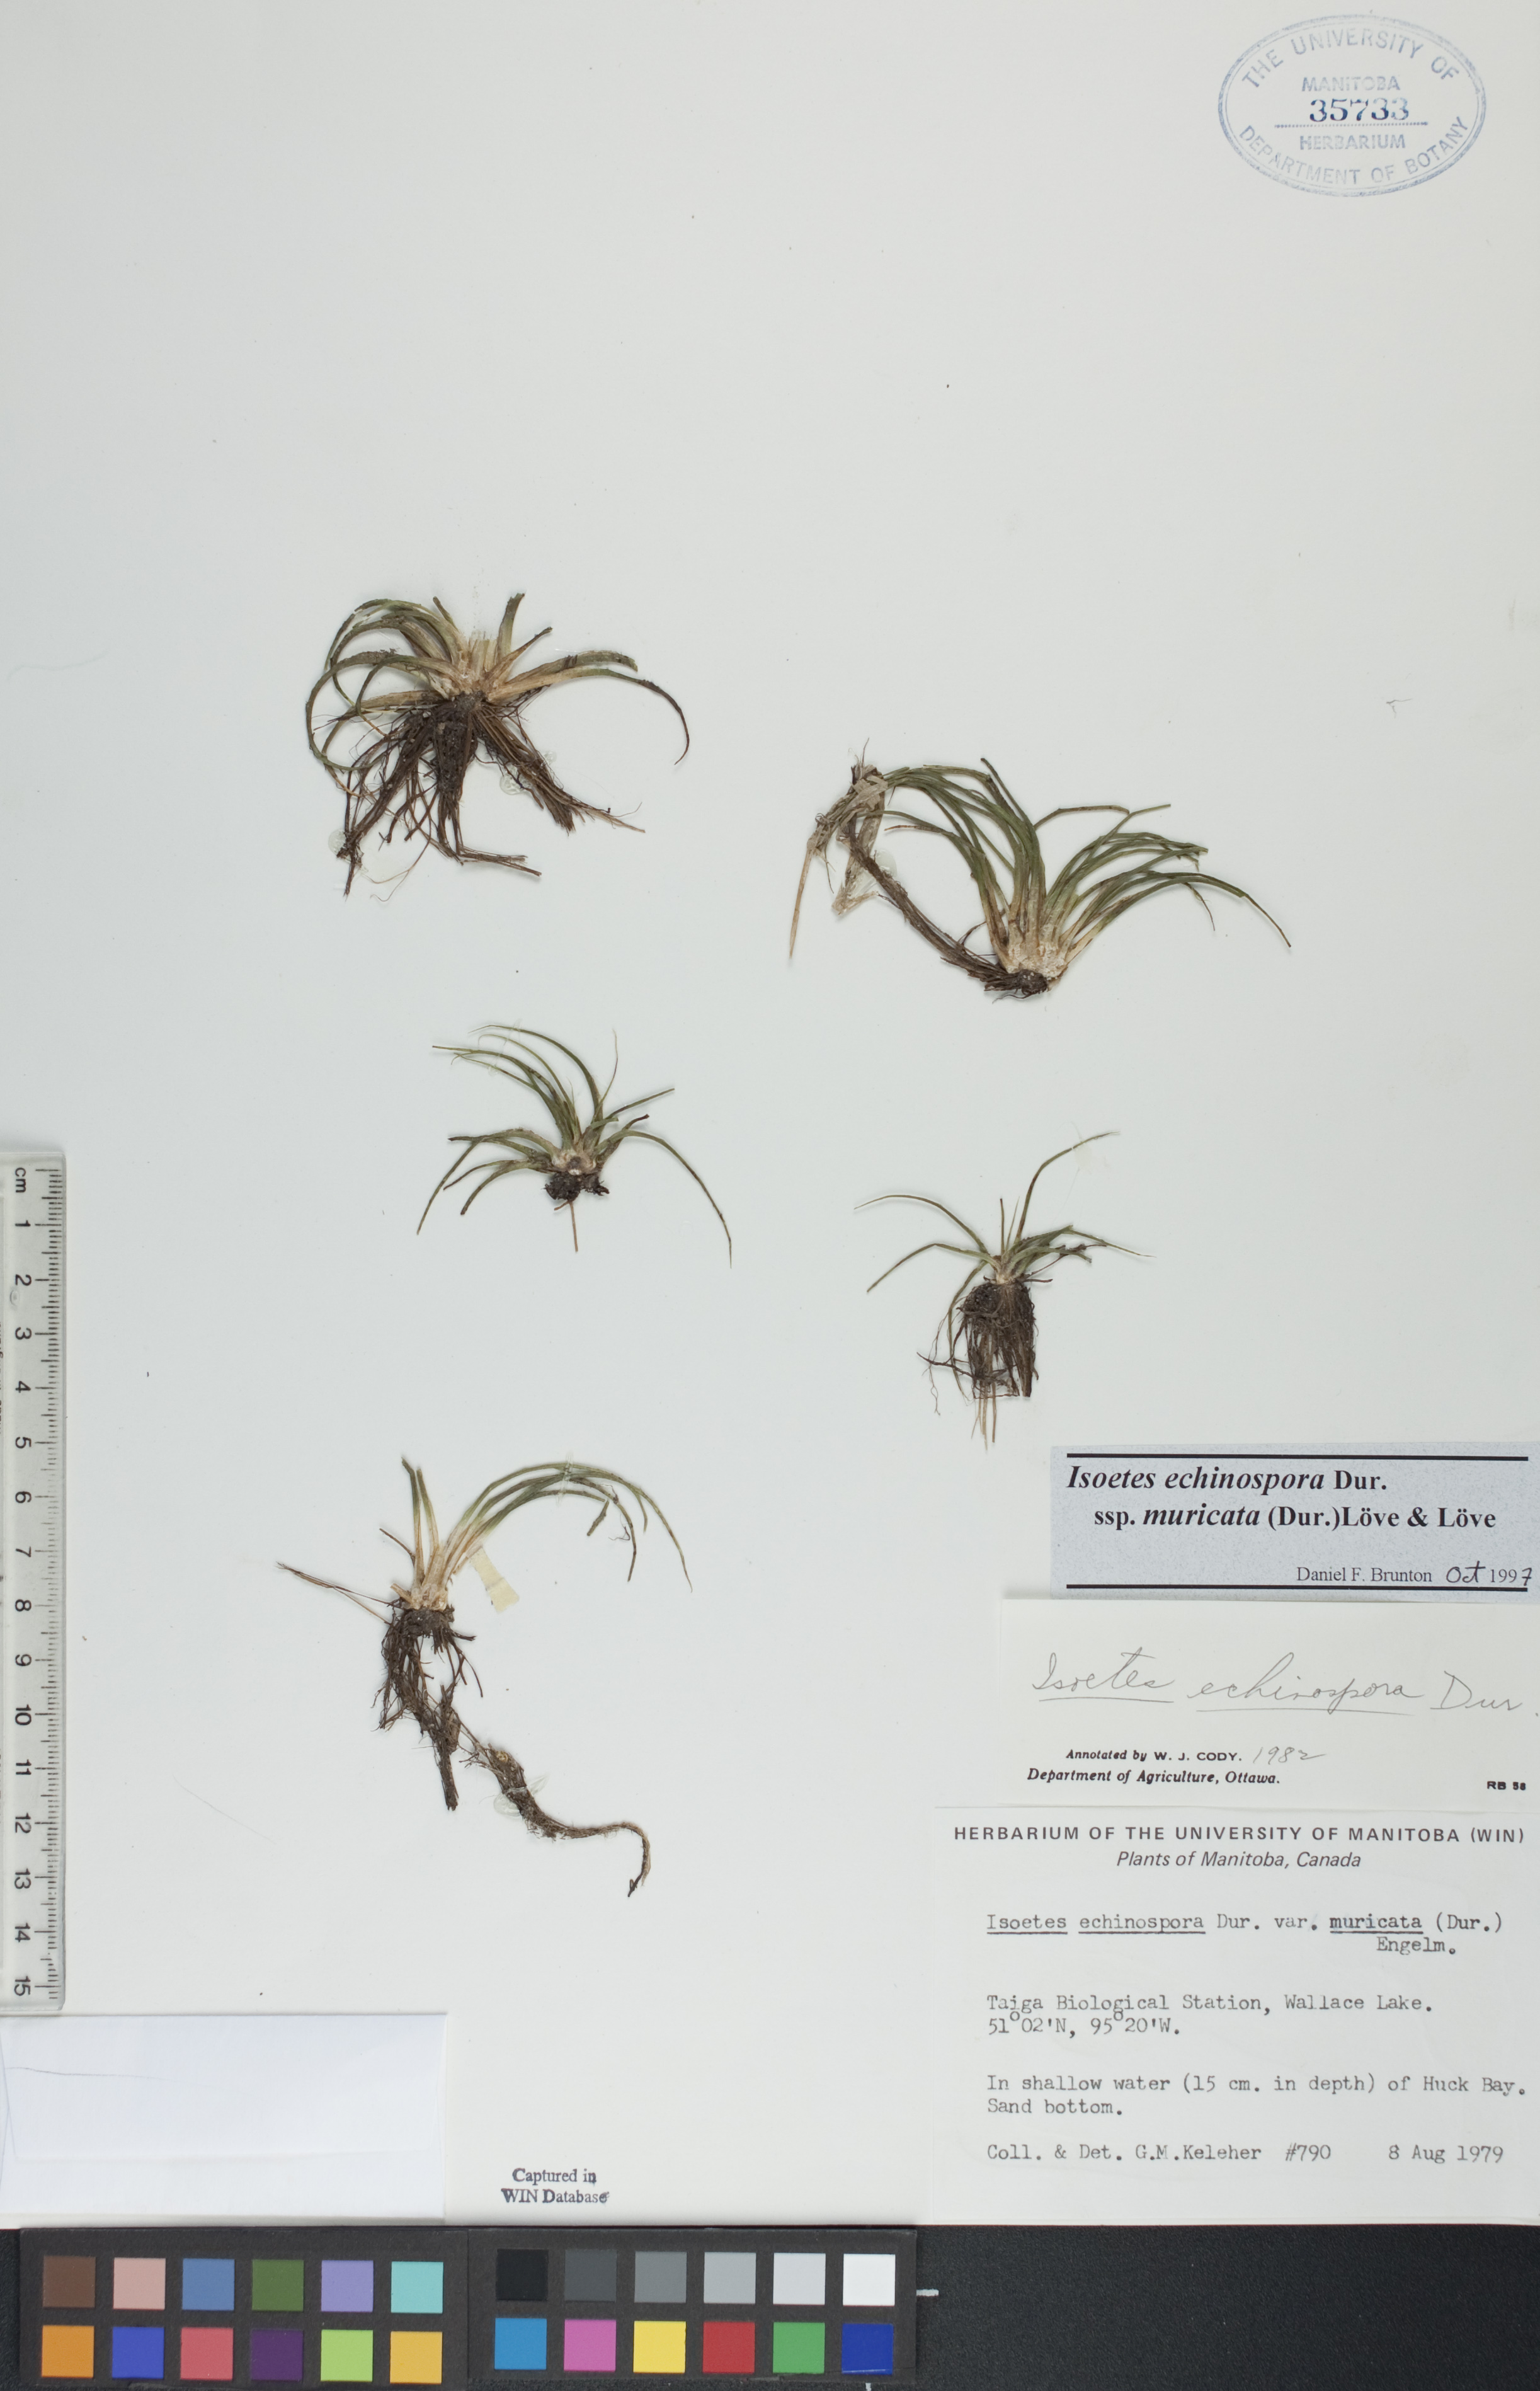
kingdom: Plantae
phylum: Tracheophyta
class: Lycopodiopsida
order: Isoetales
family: Isoetaceae
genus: Isoetes
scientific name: Isoetes echinospora
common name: Spring quillwort
